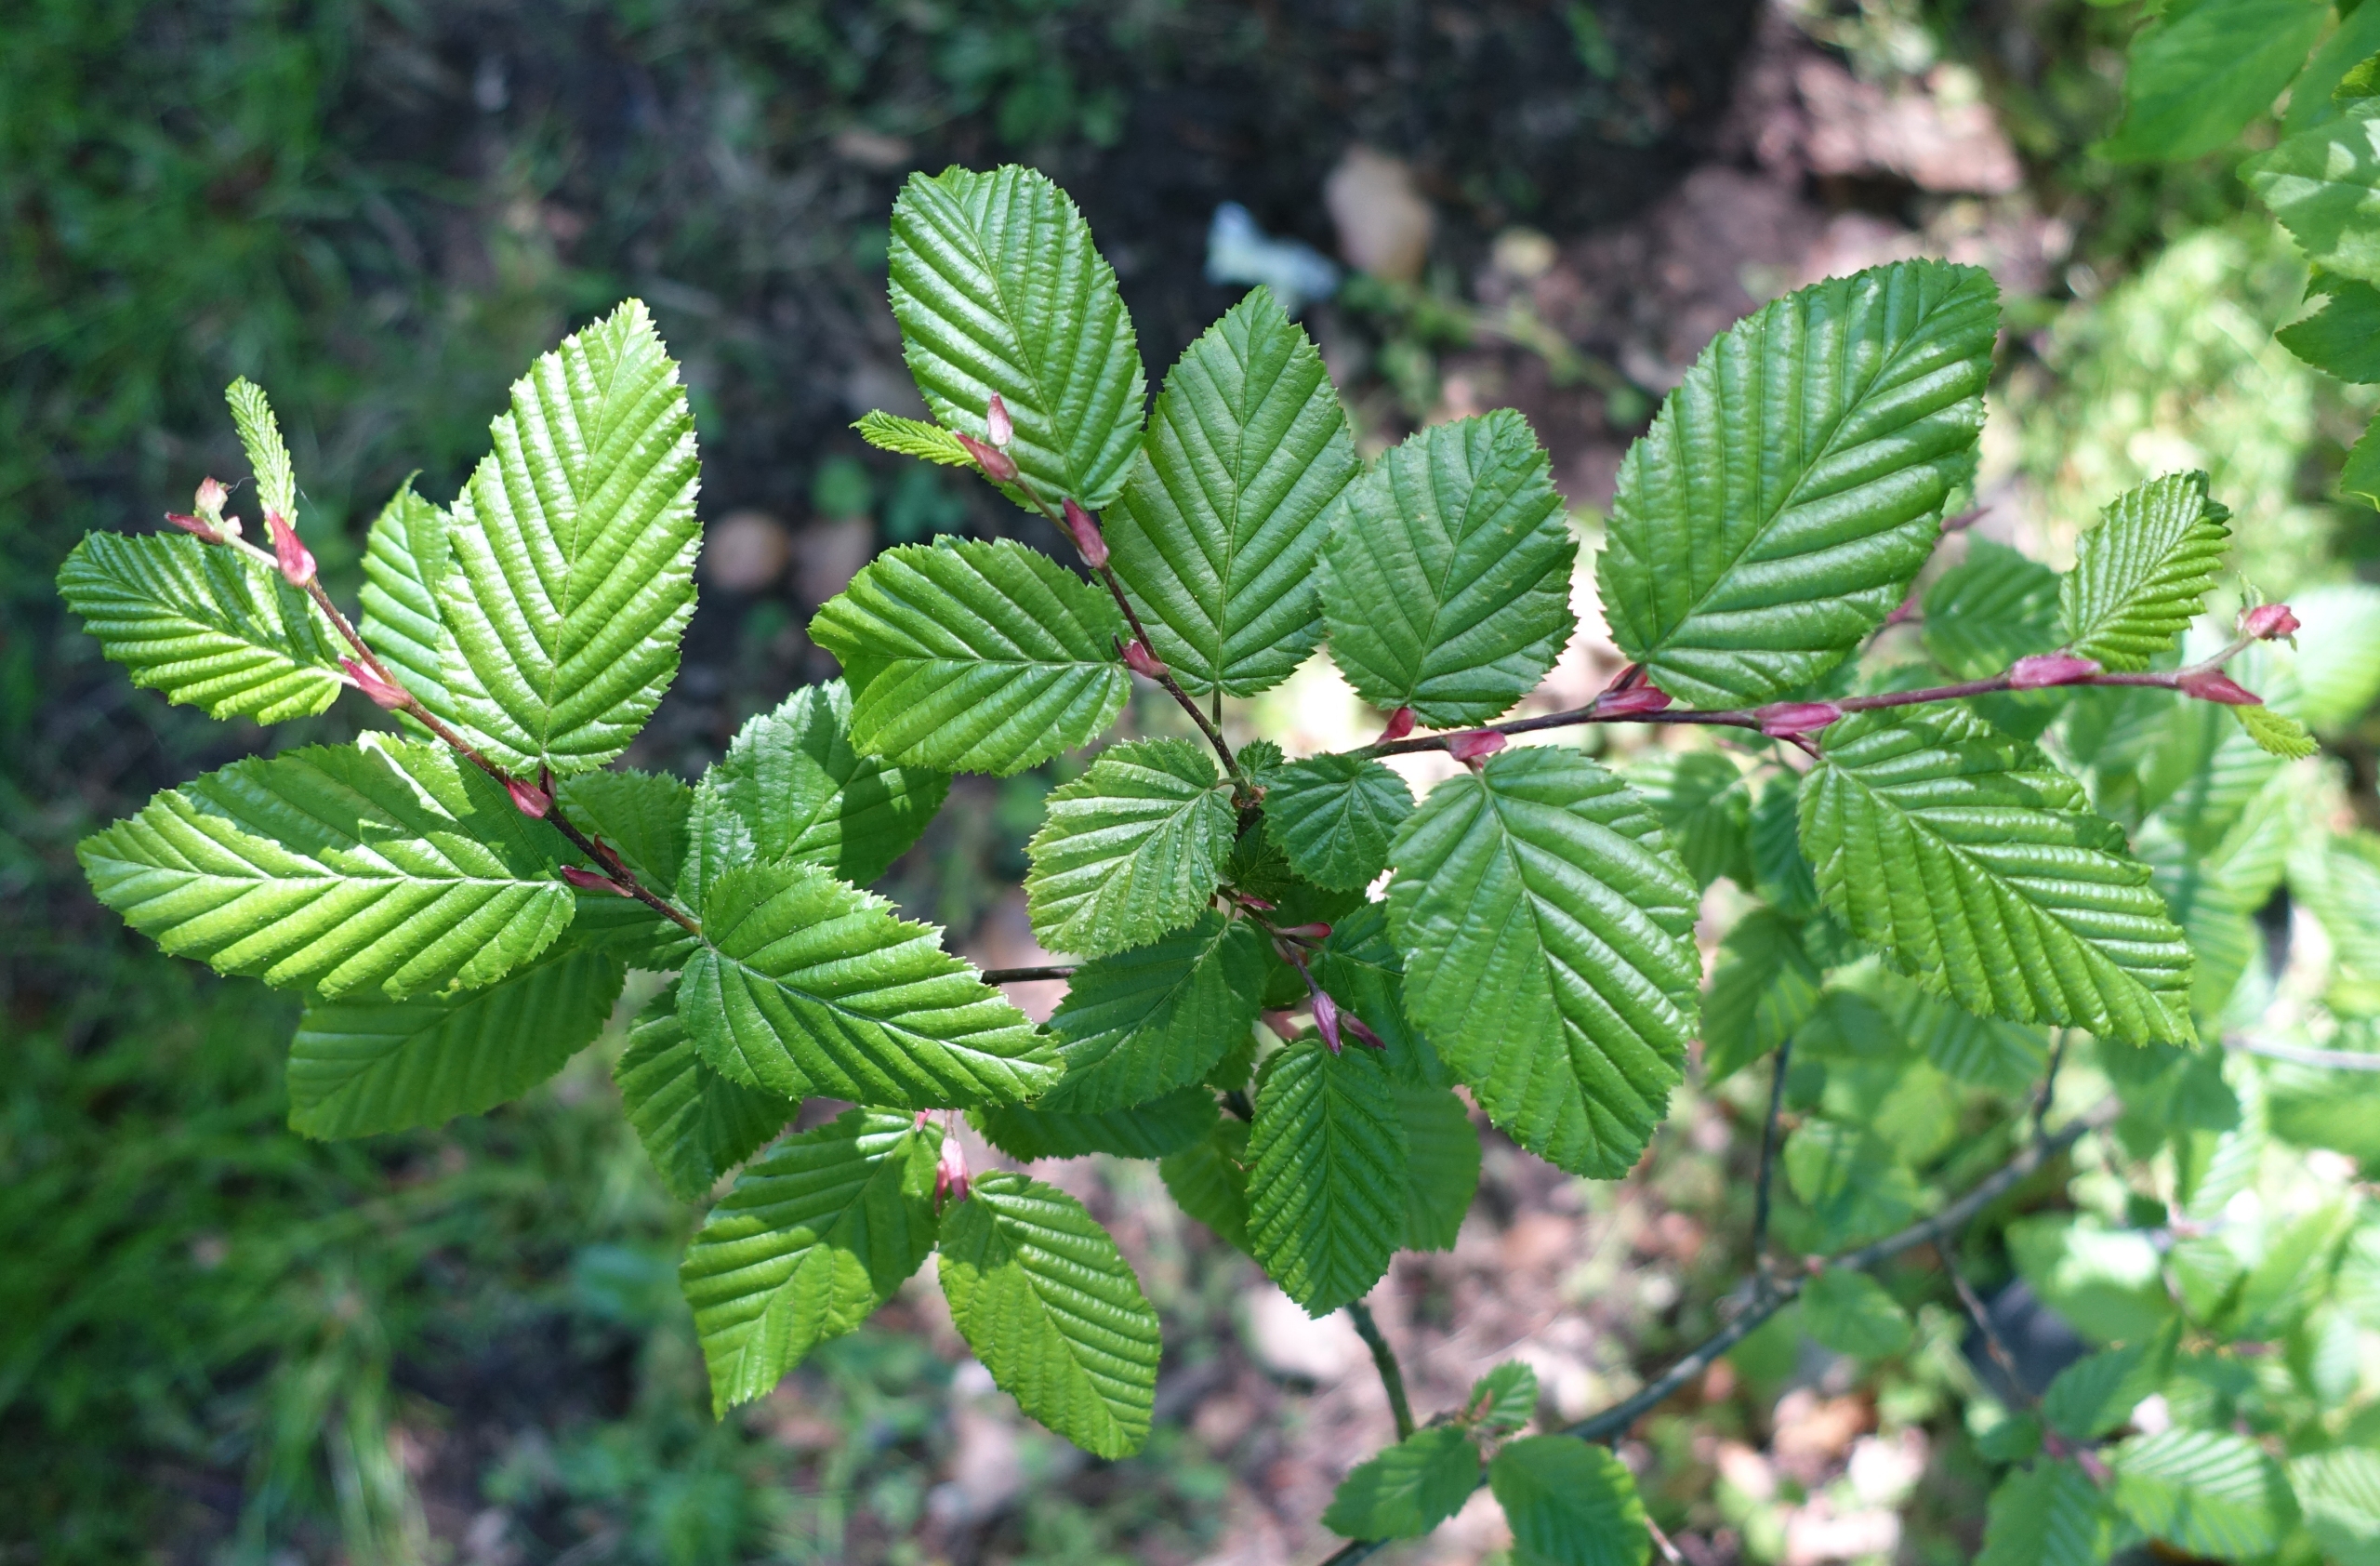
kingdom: Plantae
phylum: Tracheophyta
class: Magnoliopsida
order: Fagales
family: Betulaceae
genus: Carpinus
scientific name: Carpinus betulus
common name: Avnbøg
